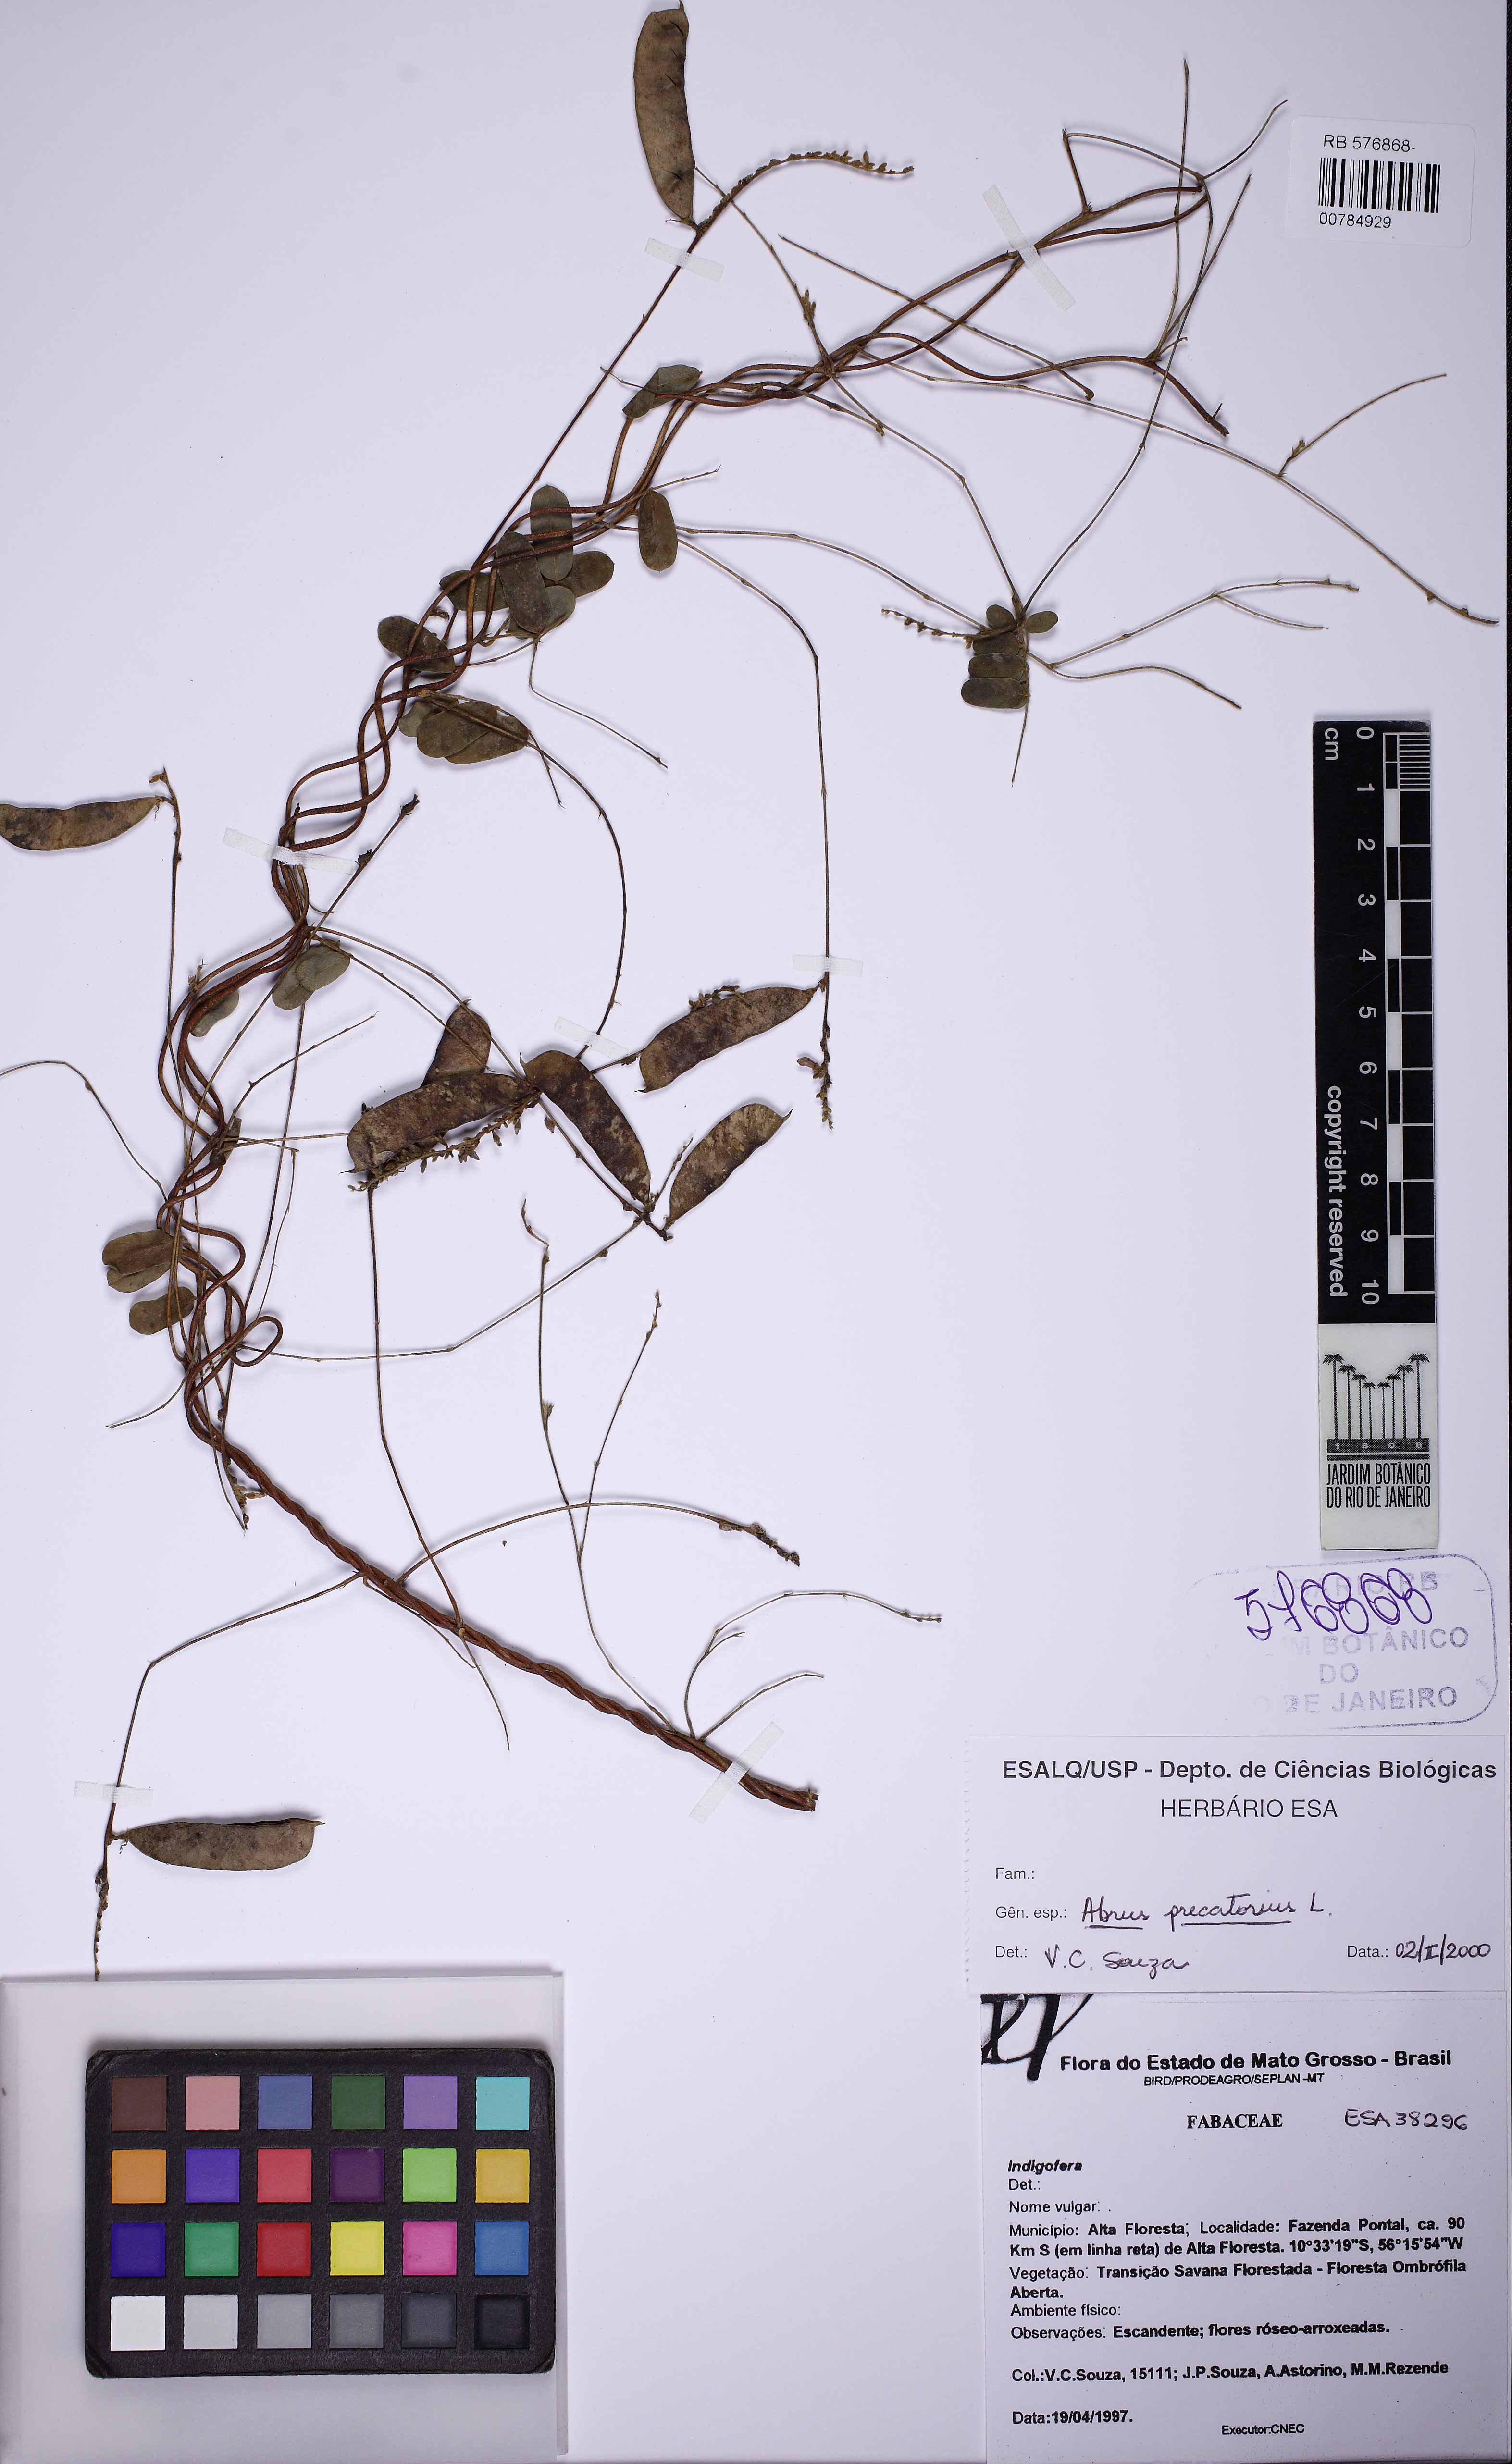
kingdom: Plantae
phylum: Tracheophyta
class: Magnoliopsida
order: Fabales
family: Fabaceae
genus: Abrus
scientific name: Abrus precatorius
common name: Rosarypea
